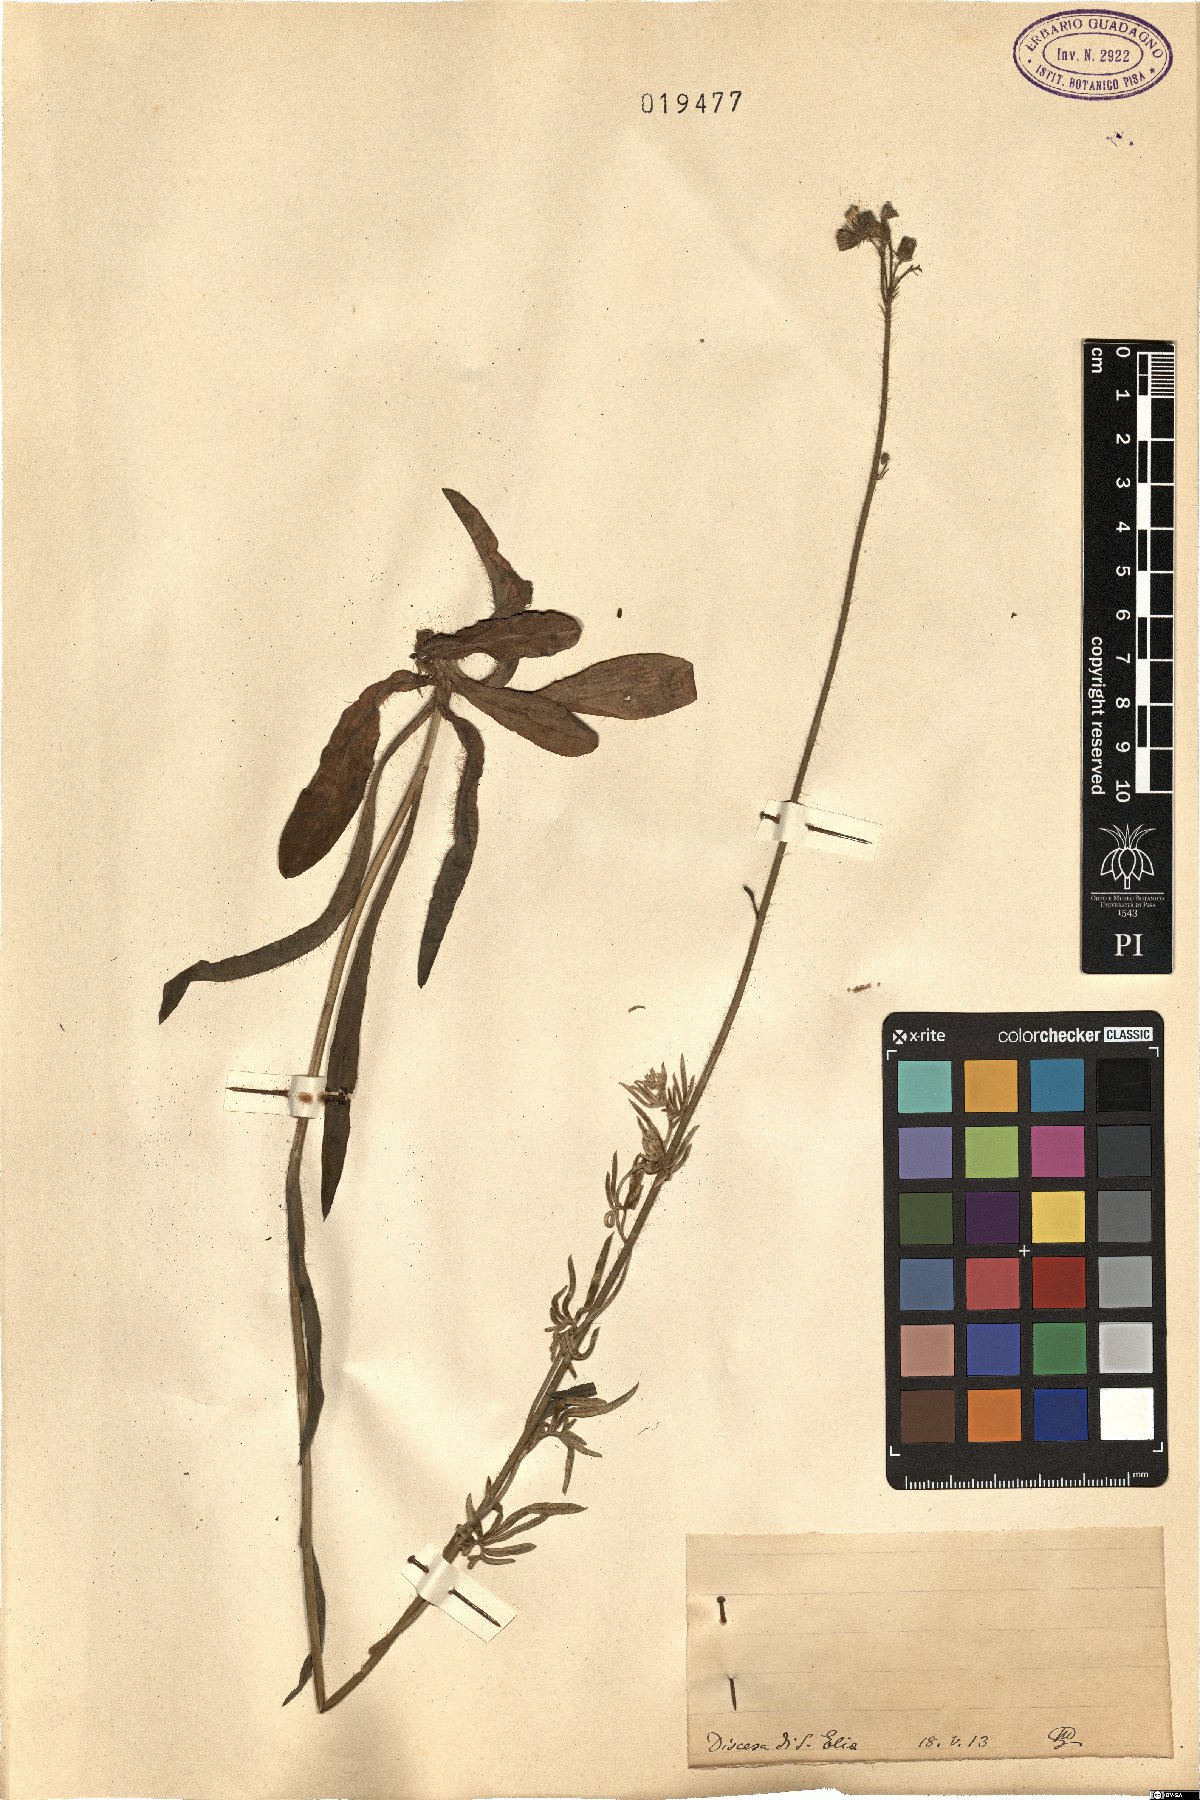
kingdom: Plantae
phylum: Tracheophyta
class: Magnoliopsida
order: Asterales
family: Asteraceae
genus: Hieracium
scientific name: Hieracium
